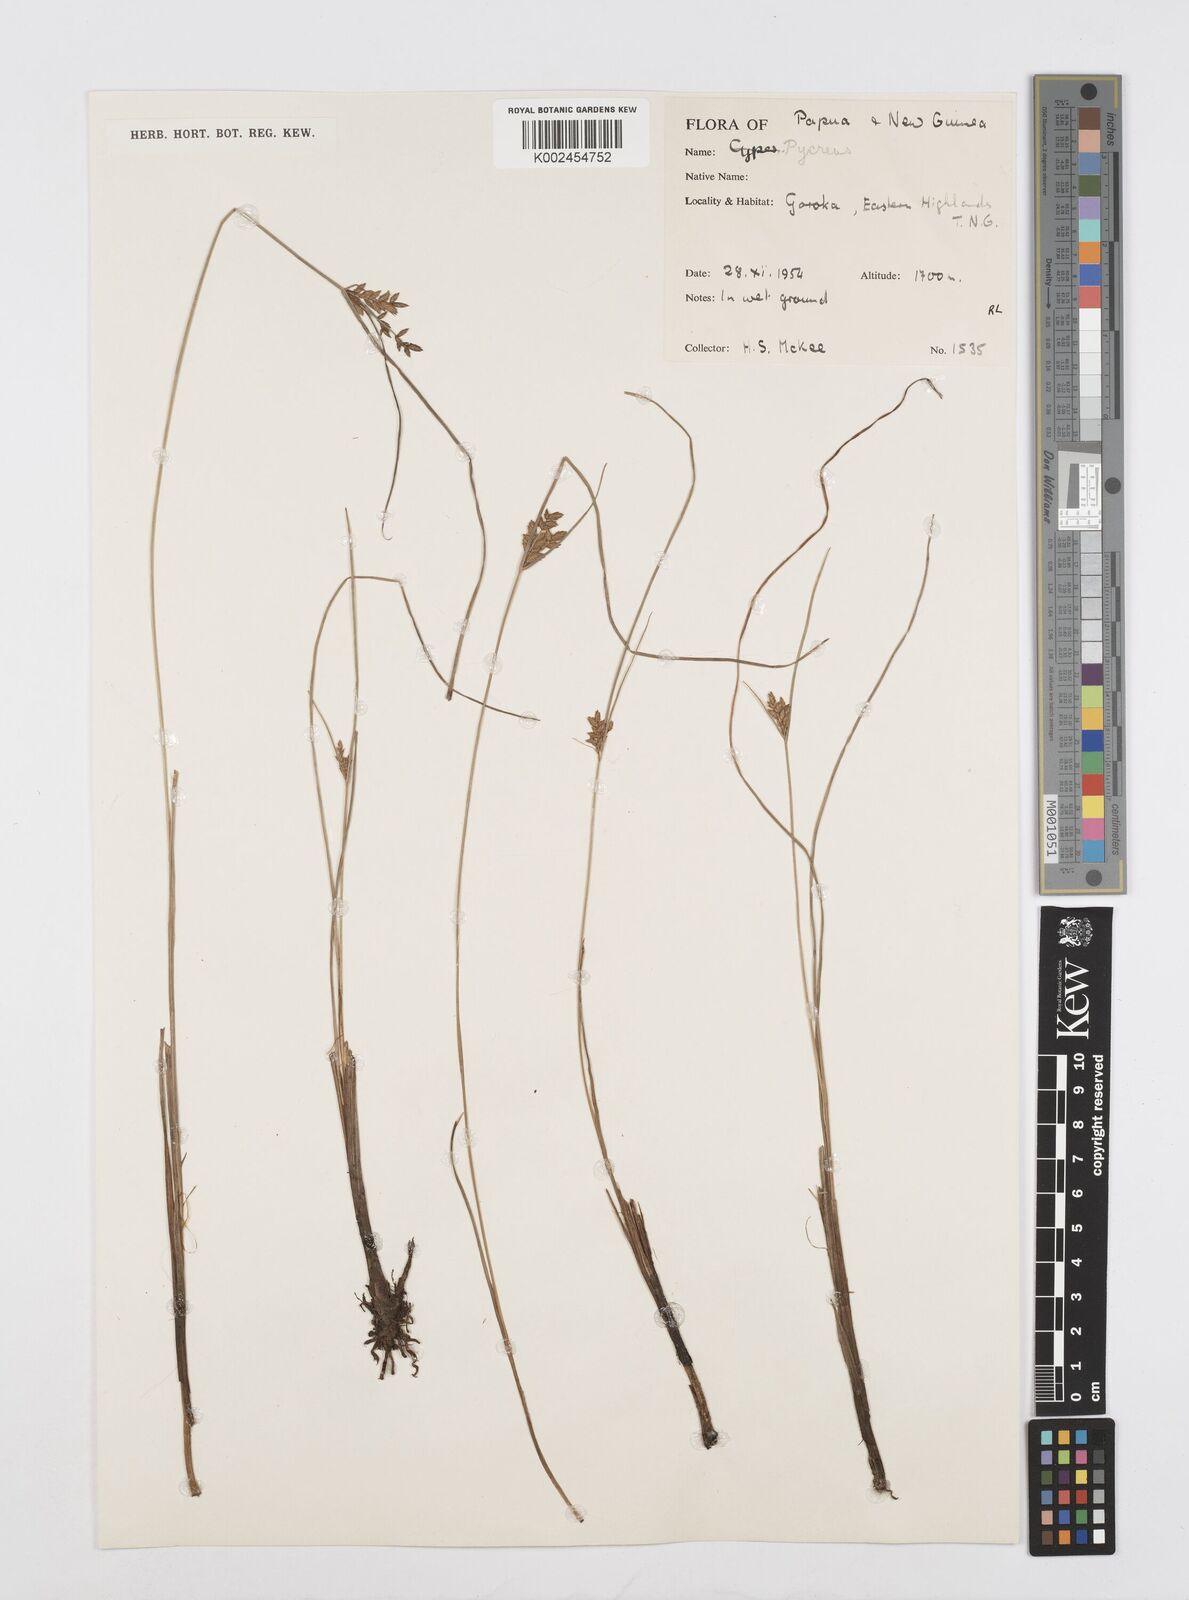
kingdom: Plantae
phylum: Tracheophyta
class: Liliopsida
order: Poales
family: Cyperaceae
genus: Cyperus
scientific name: Cyperus unioloides
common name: Uniola flatsedge
